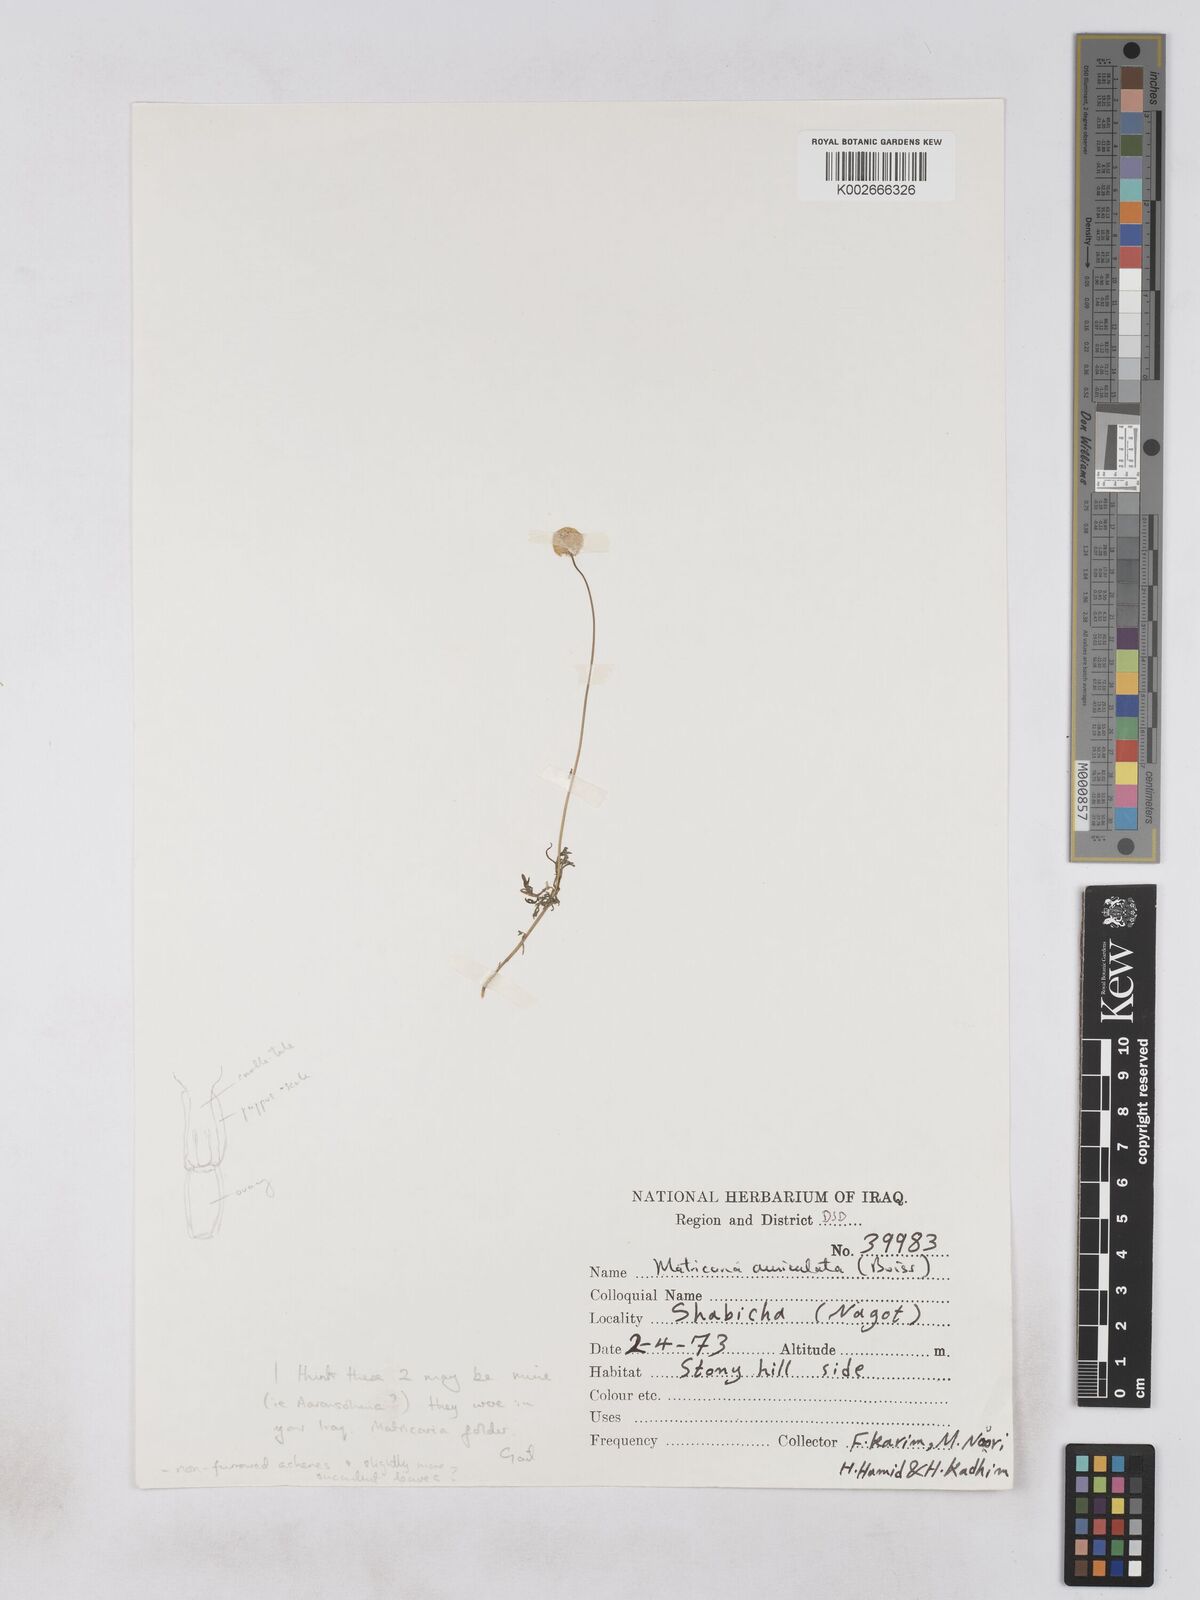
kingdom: Plantae
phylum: Tracheophyta
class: Magnoliopsida
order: Asterales
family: Asteraceae
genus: Otoglyphis
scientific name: Otoglyphis factorovskyi
